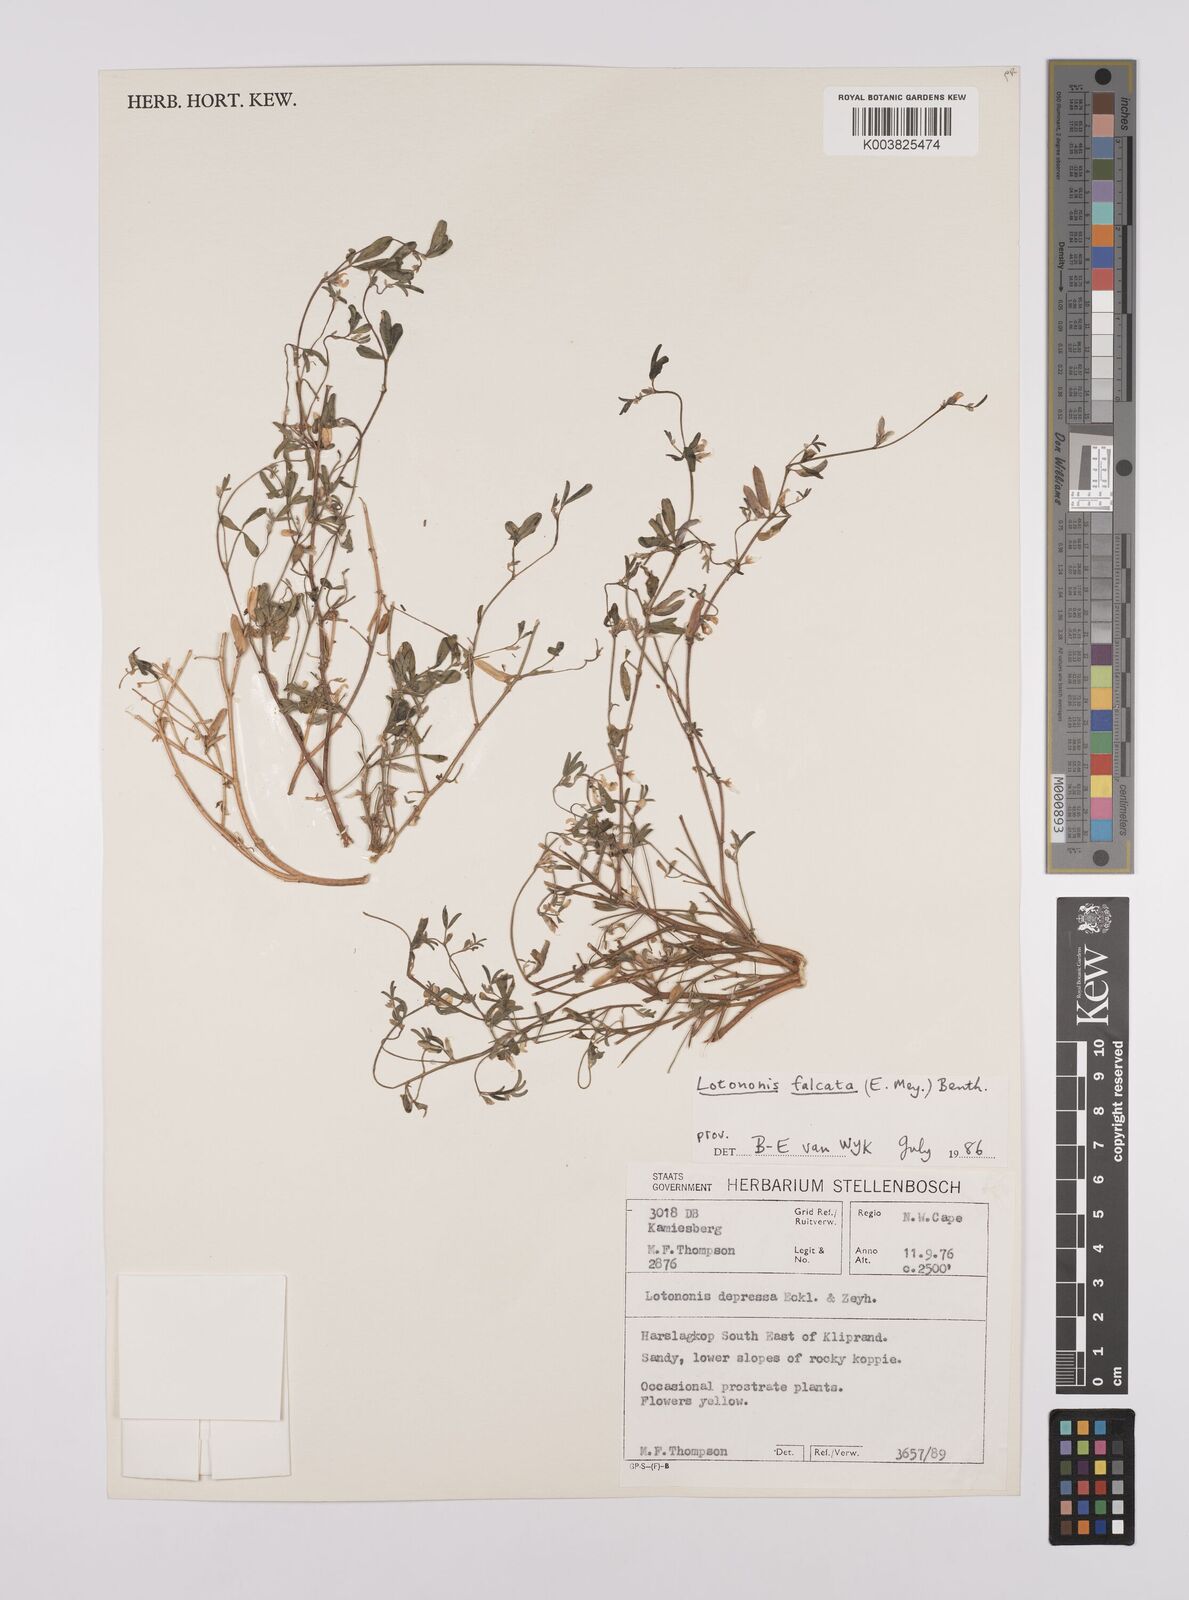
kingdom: Plantae
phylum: Tracheophyta
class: Magnoliopsida
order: Fabales
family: Fabaceae
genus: Lotononis
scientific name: Lotononis falcata
